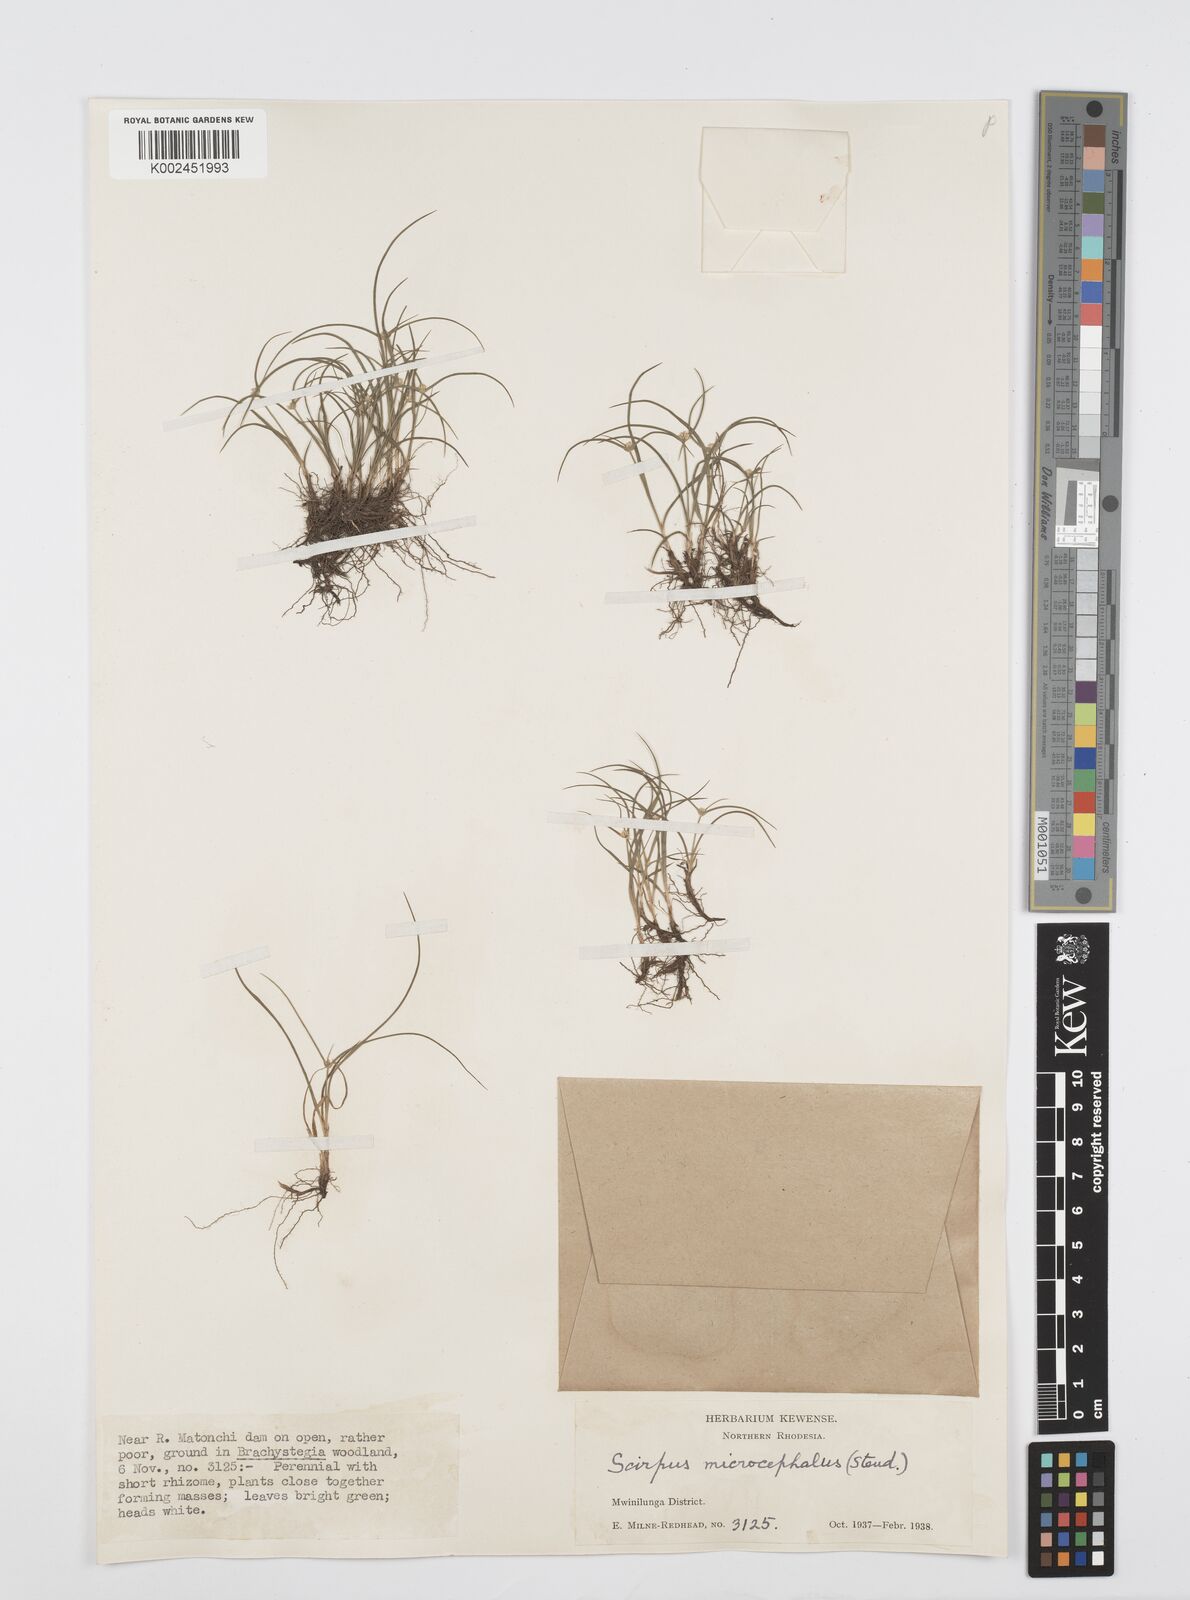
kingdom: Plantae
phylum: Tracheophyta
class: Liliopsida
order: Poales
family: Cyperaceae
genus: Cyperus
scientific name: Cyperus microcephalus
